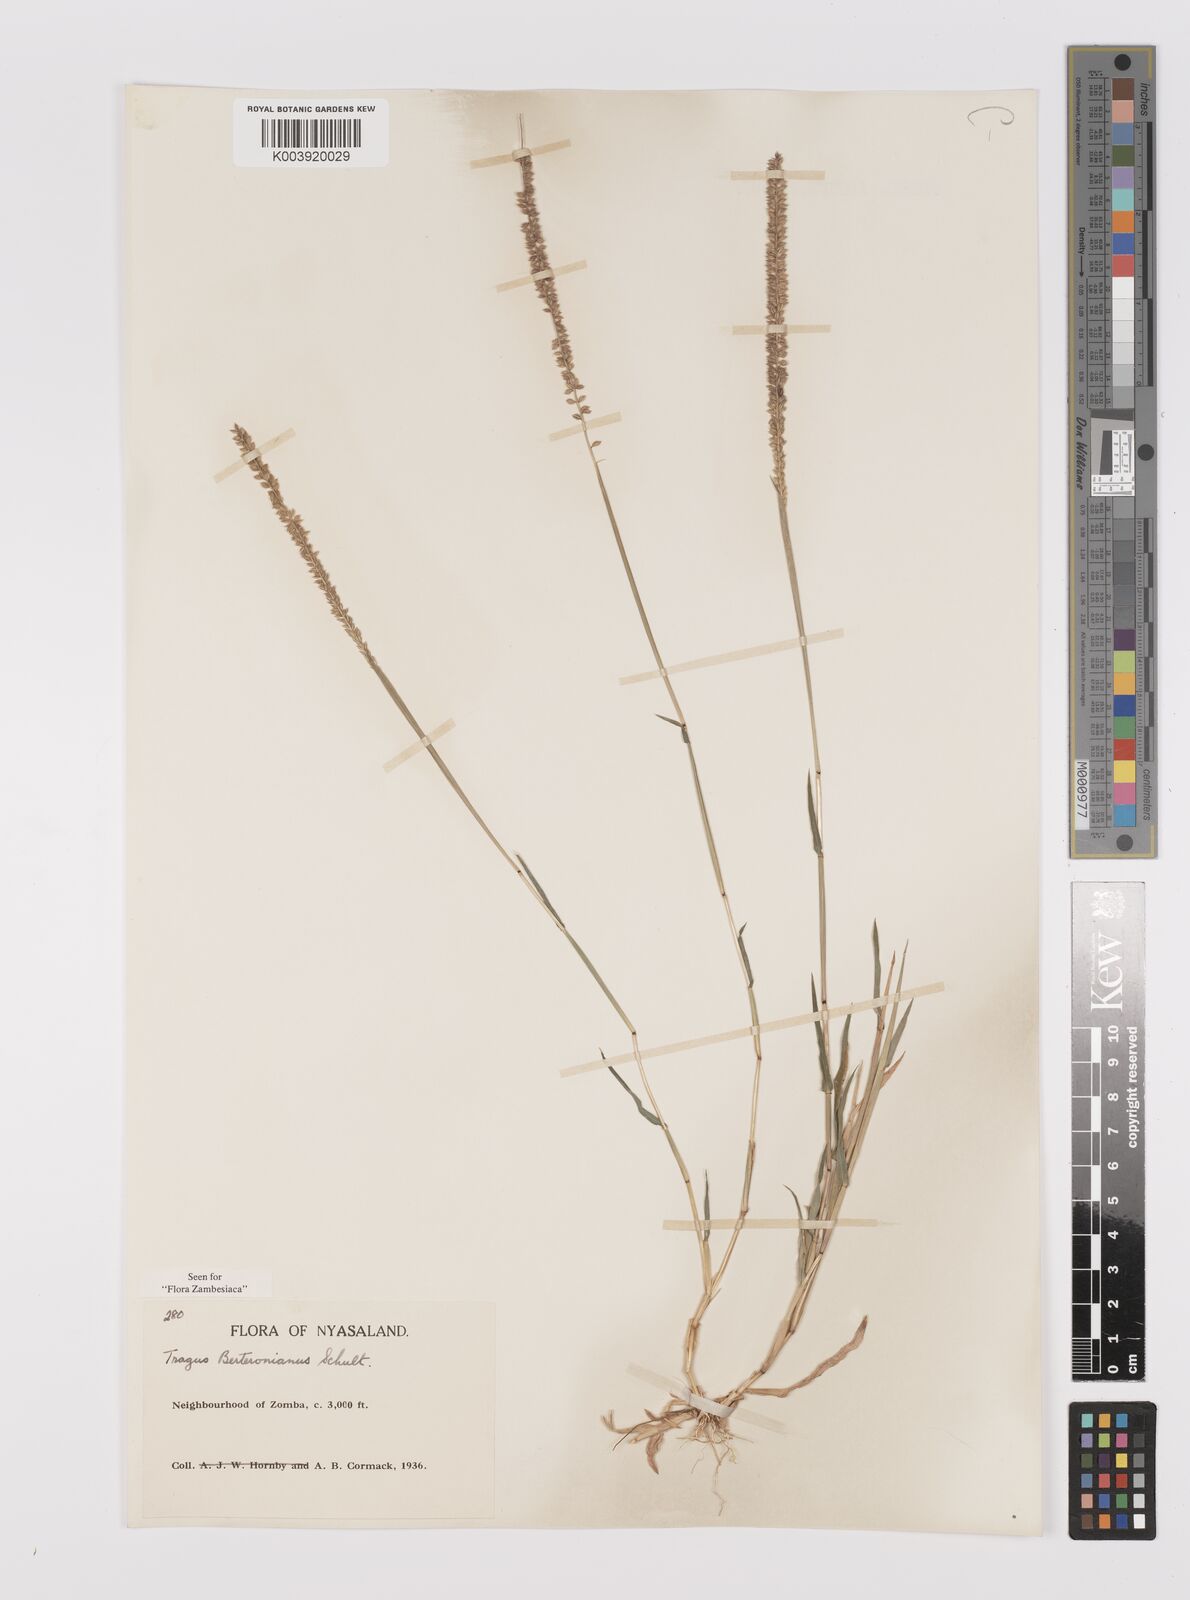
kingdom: Plantae
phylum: Tracheophyta
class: Liliopsida
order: Poales
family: Poaceae
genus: Tragus
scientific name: Tragus berteronianus
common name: African bur-grass
